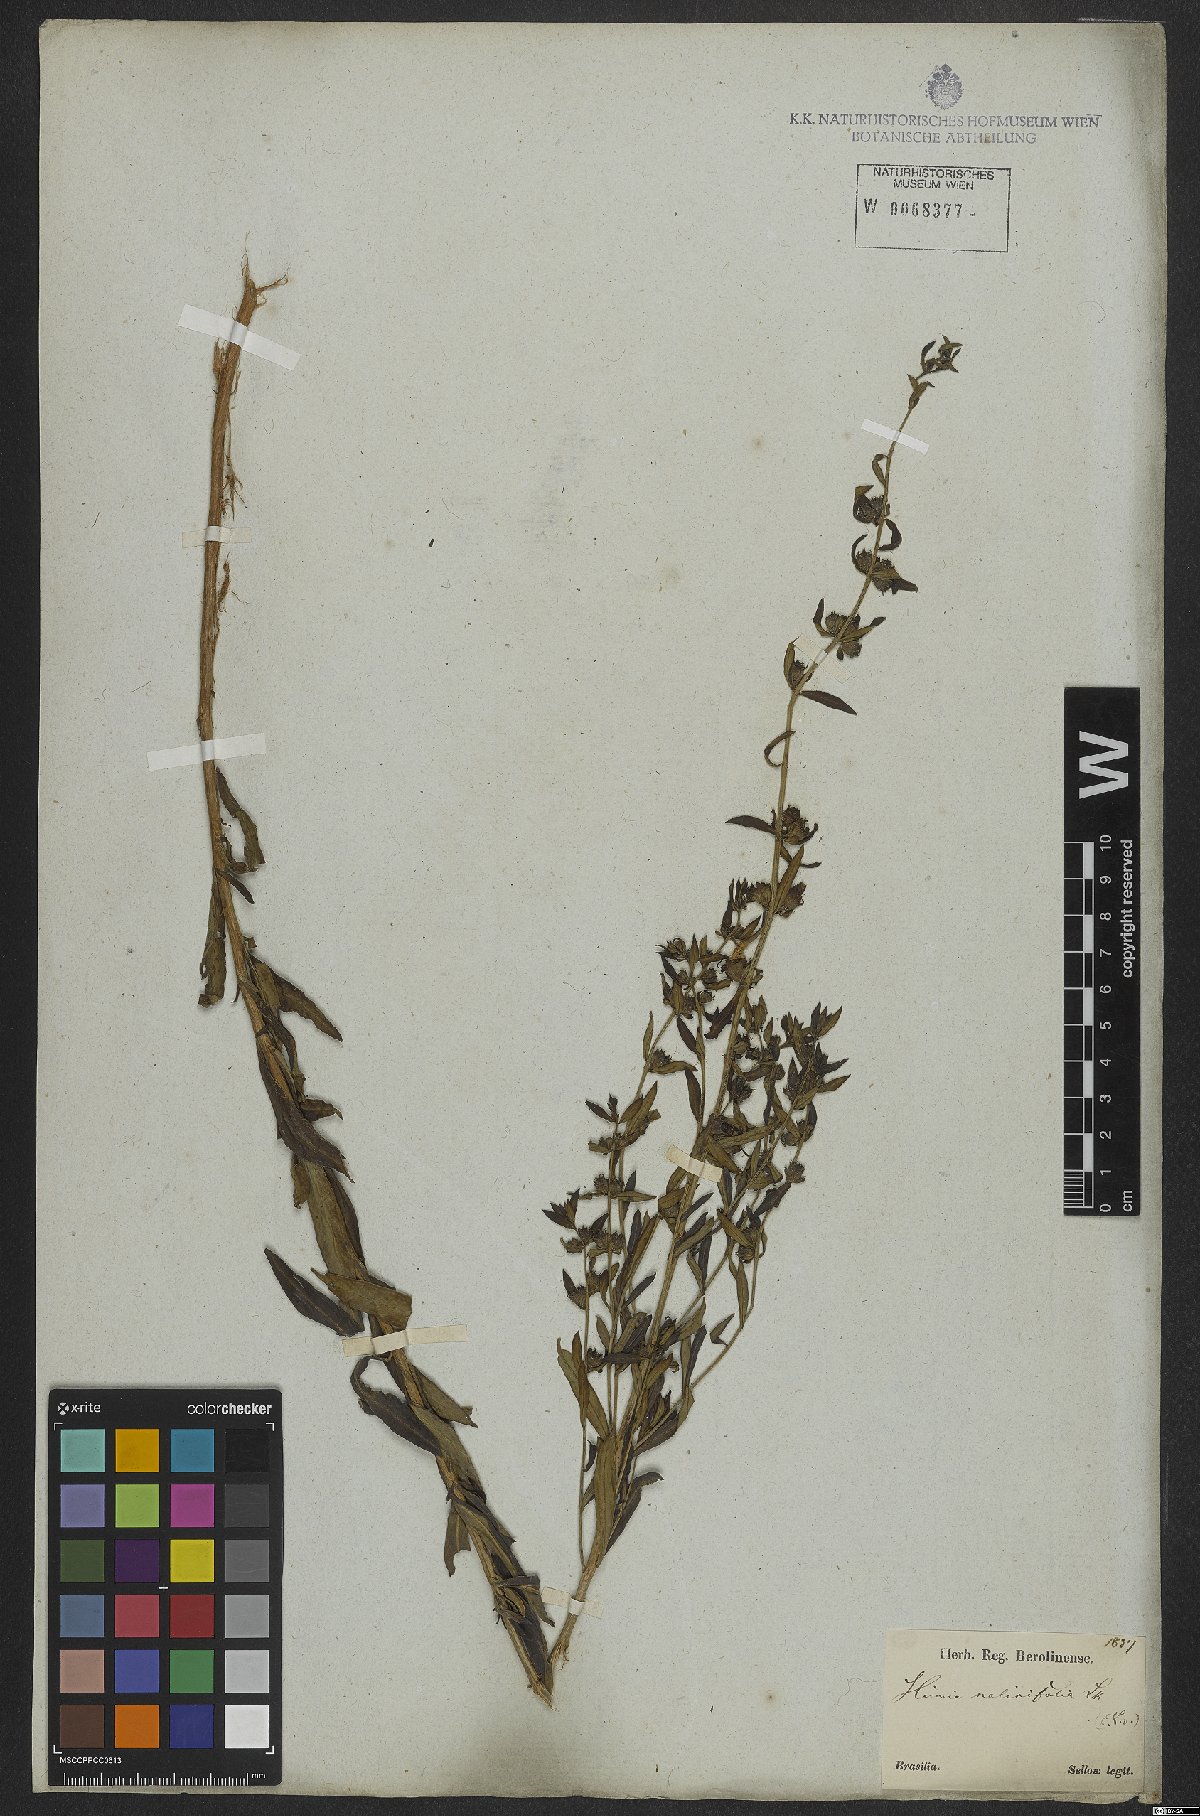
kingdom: Plantae
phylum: Tracheophyta
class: Magnoliopsida
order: Myrtales
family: Lythraceae
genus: Heimia
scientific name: Heimia salicifolia
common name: Willow-leaf heimia
